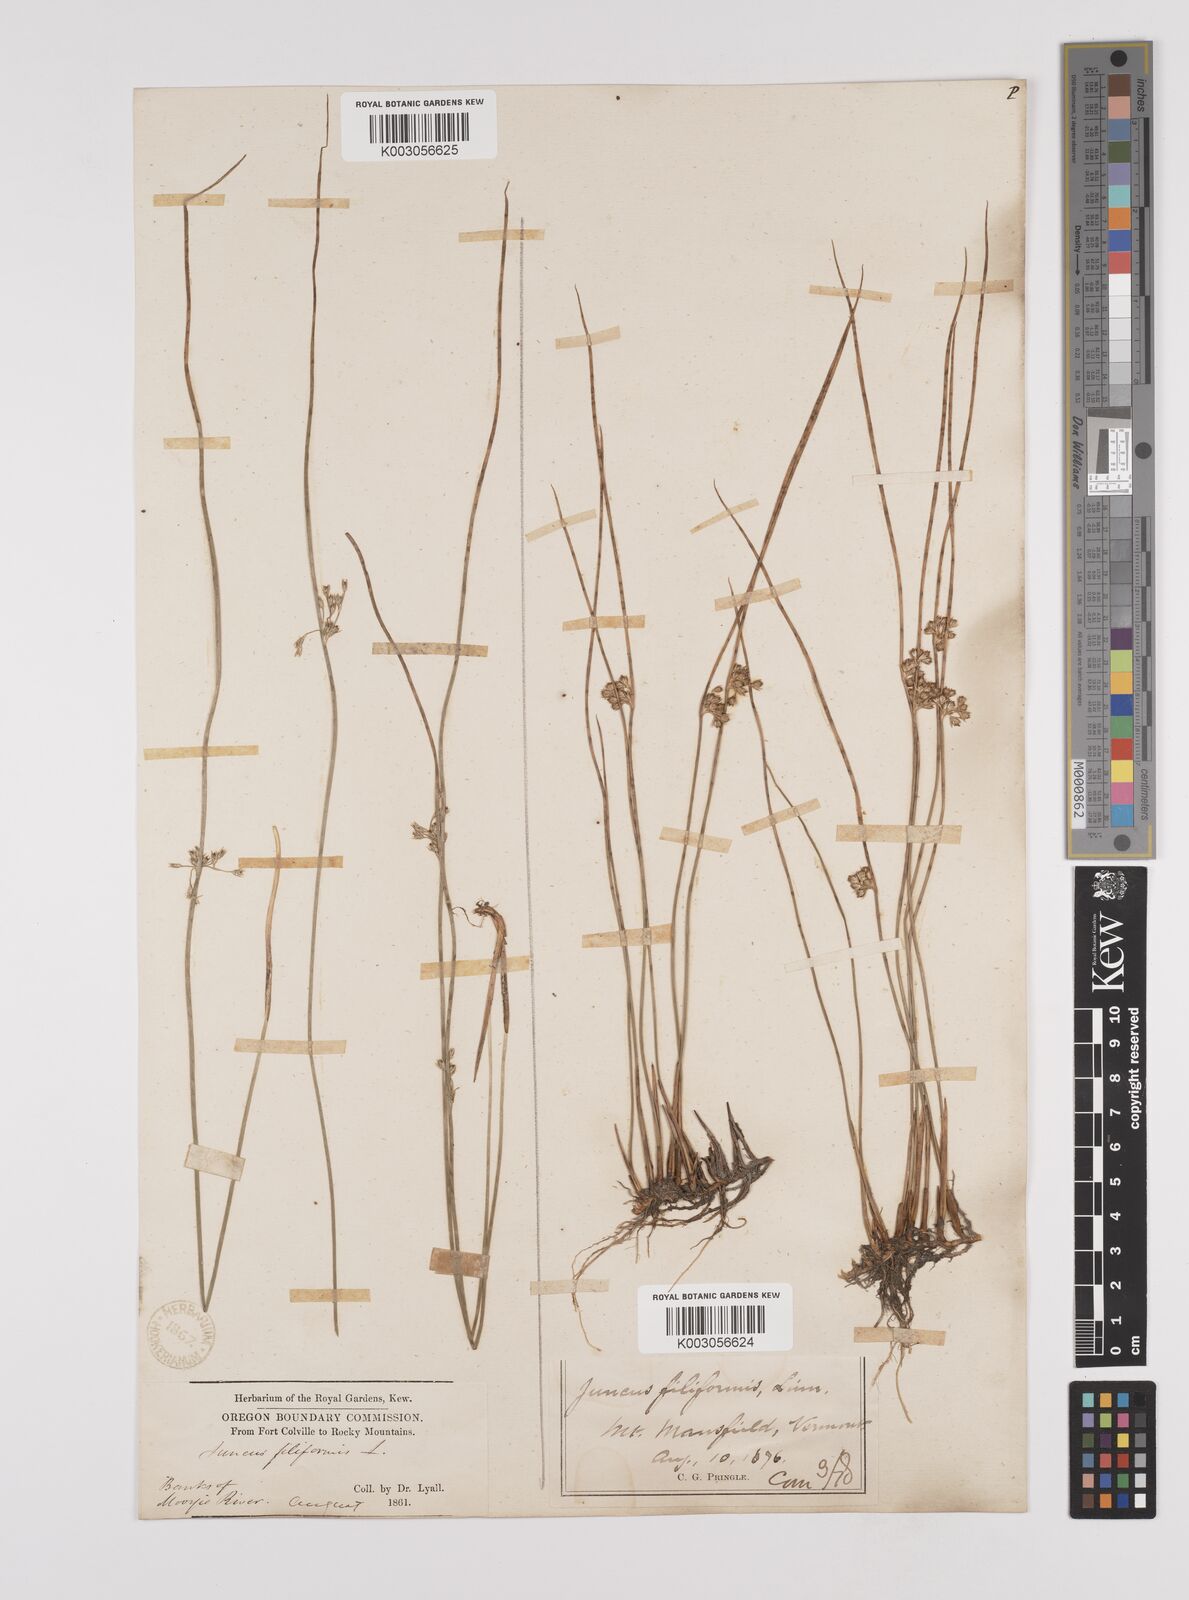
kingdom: Plantae
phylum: Tracheophyta
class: Liliopsida
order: Poales
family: Juncaceae
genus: Juncus
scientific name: Juncus filiformis
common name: Thread rush
